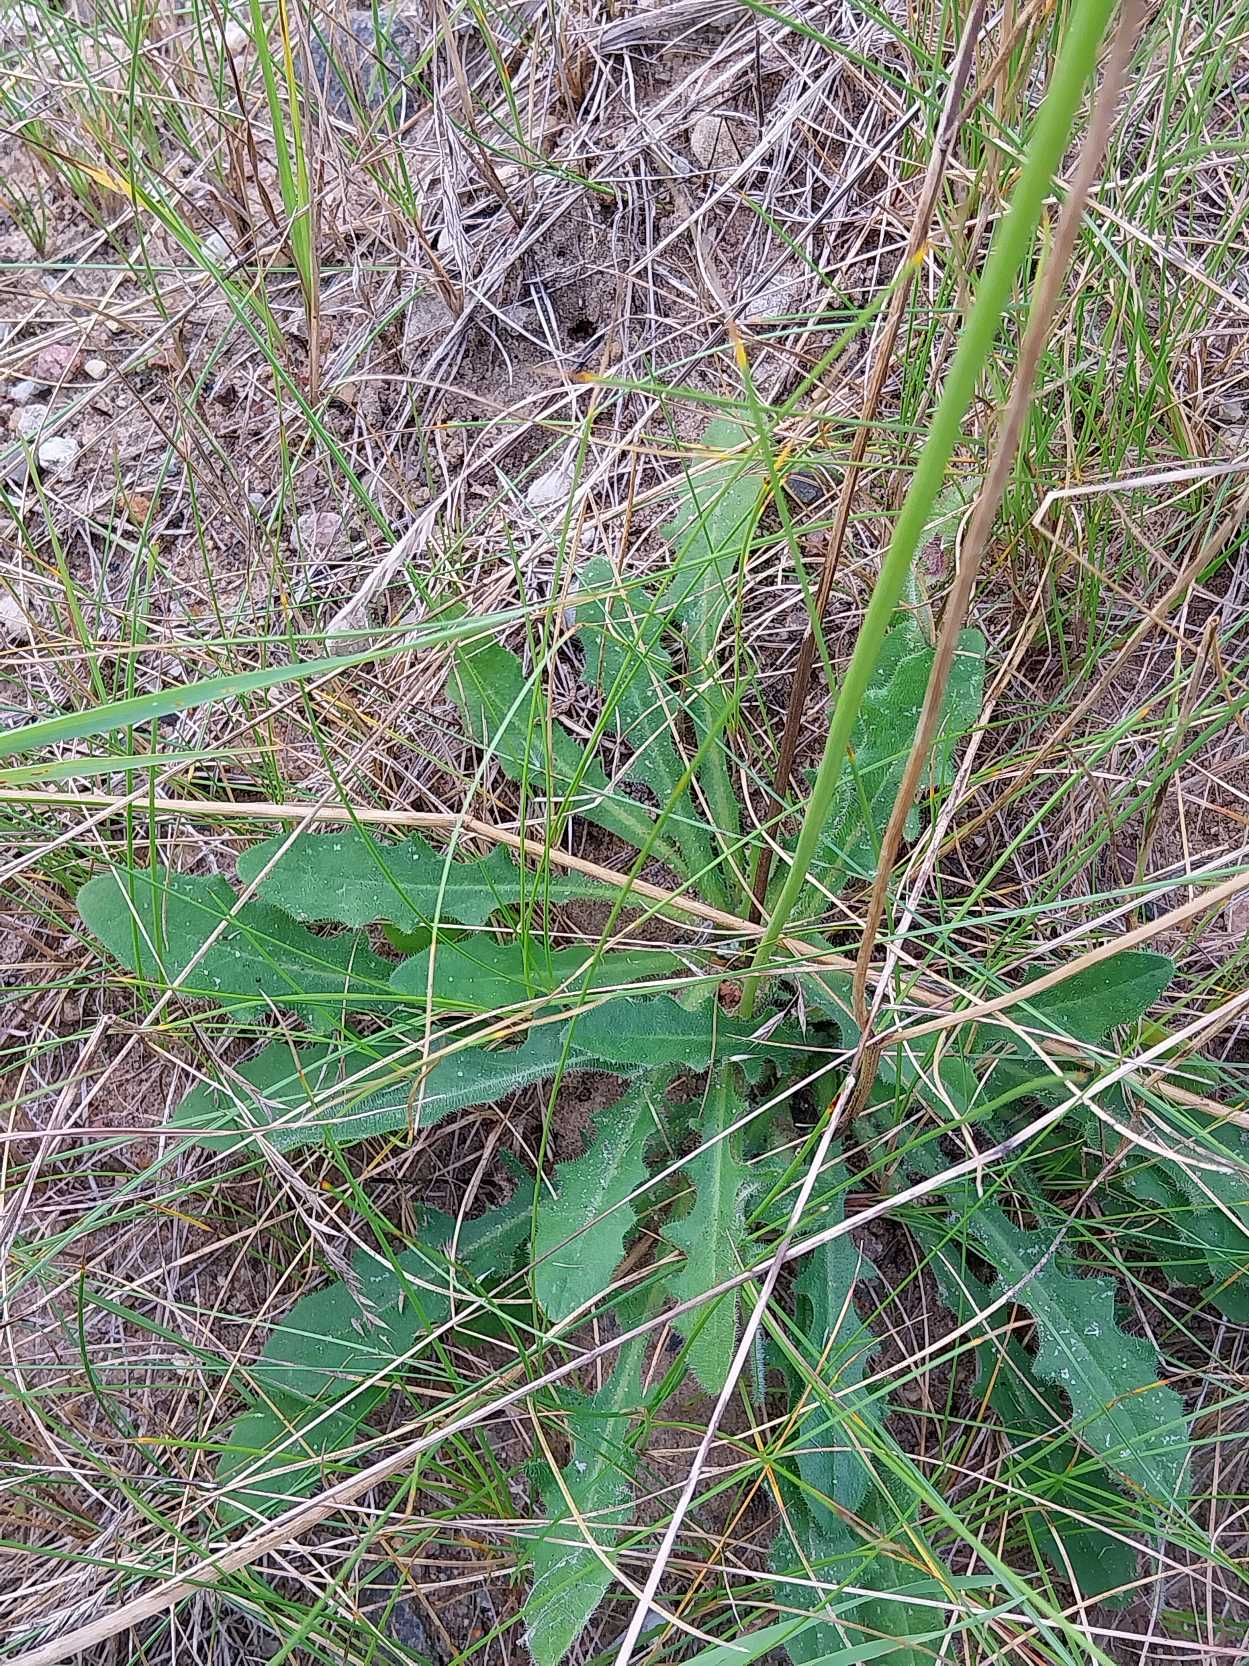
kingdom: Plantae
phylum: Tracheophyta
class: Magnoliopsida
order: Asterales
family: Asteraceae
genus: Hypochaeris
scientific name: Hypochaeris radicata
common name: Almindelig kongepen
